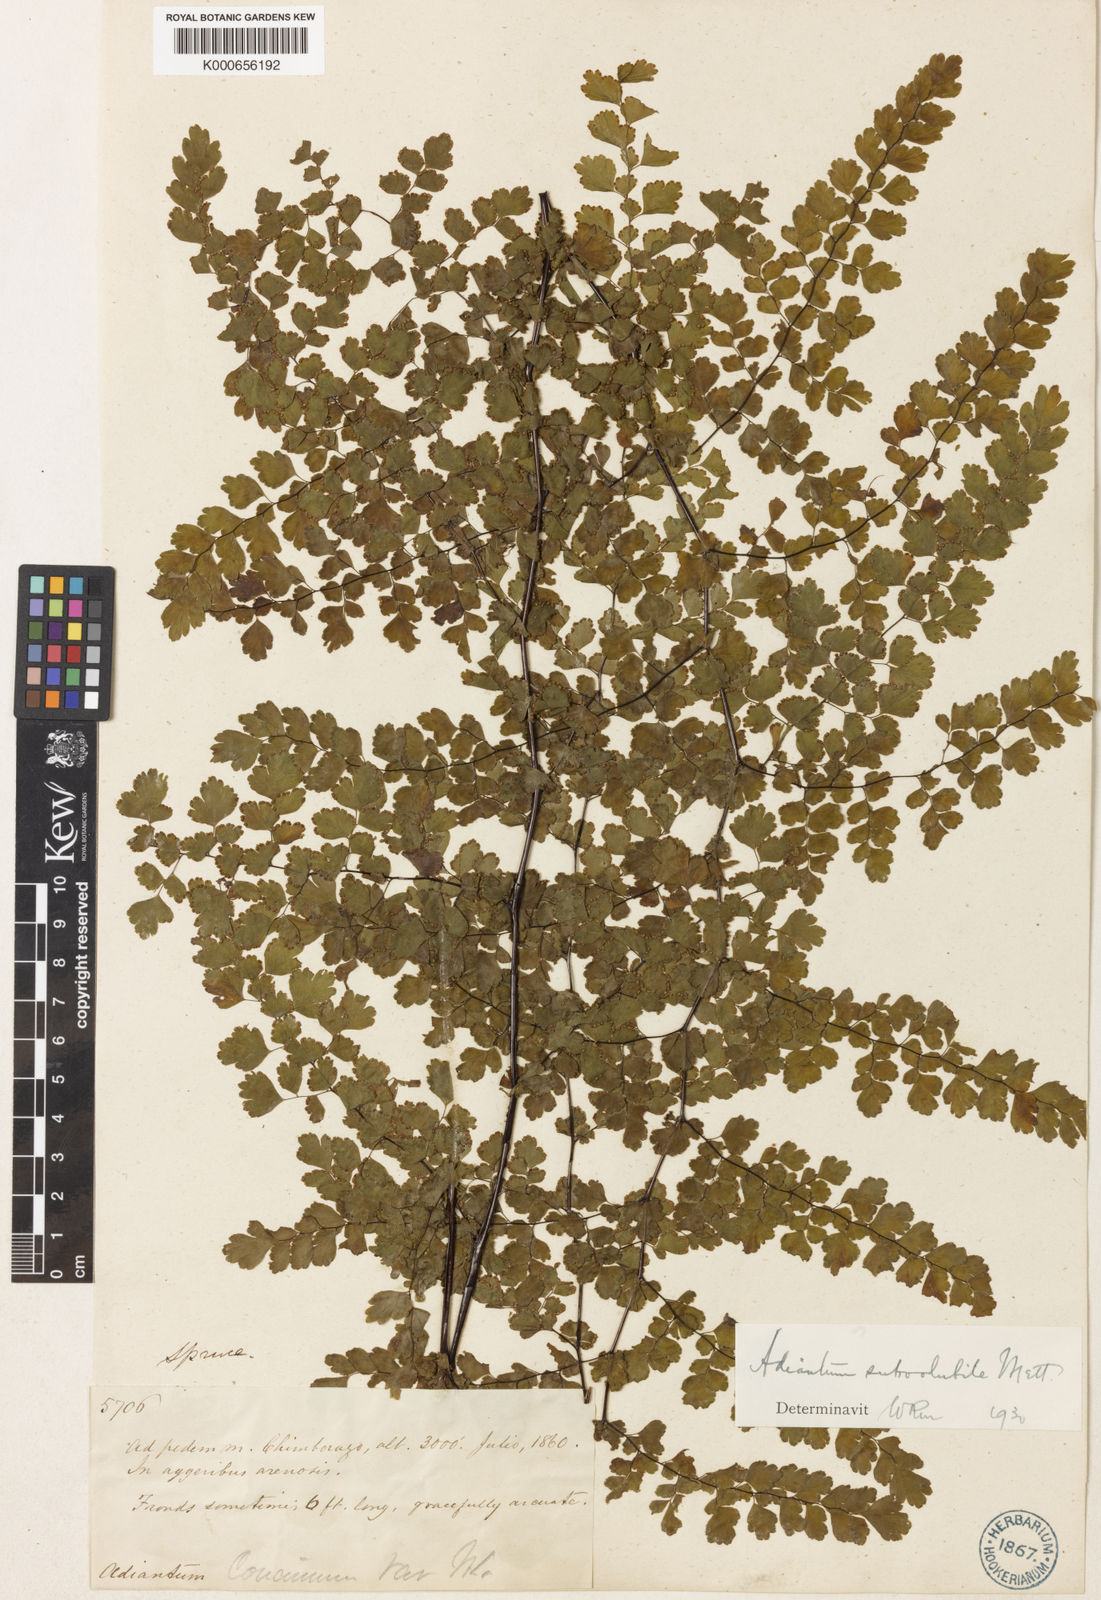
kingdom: Plantae
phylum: Tracheophyta
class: Polypodiopsida
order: Polypodiales
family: Pteridaceae
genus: Adiantum
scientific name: Adiantum concinnum
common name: Brittle maidenhair fern
